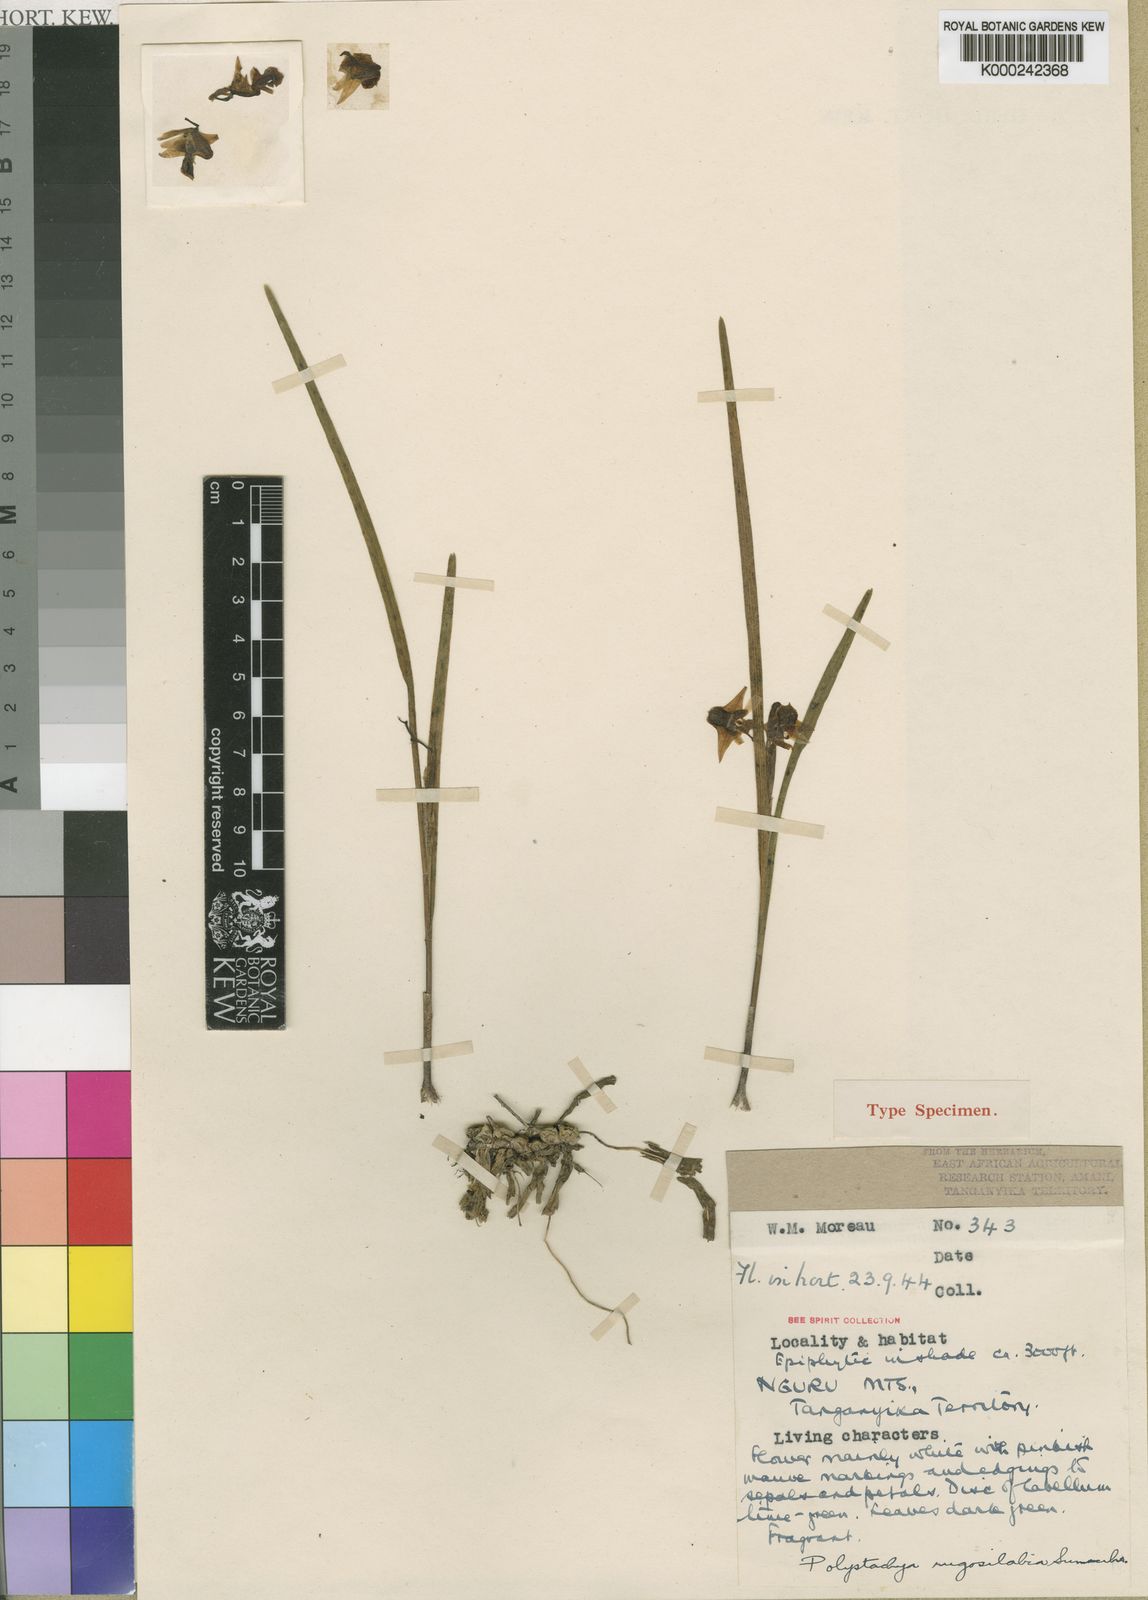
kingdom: Plantae
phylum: Tracheophyta
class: Liliopsida
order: Asparagales
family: Orchidaceae
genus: Polystachya
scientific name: Polystachya rugosilabia
